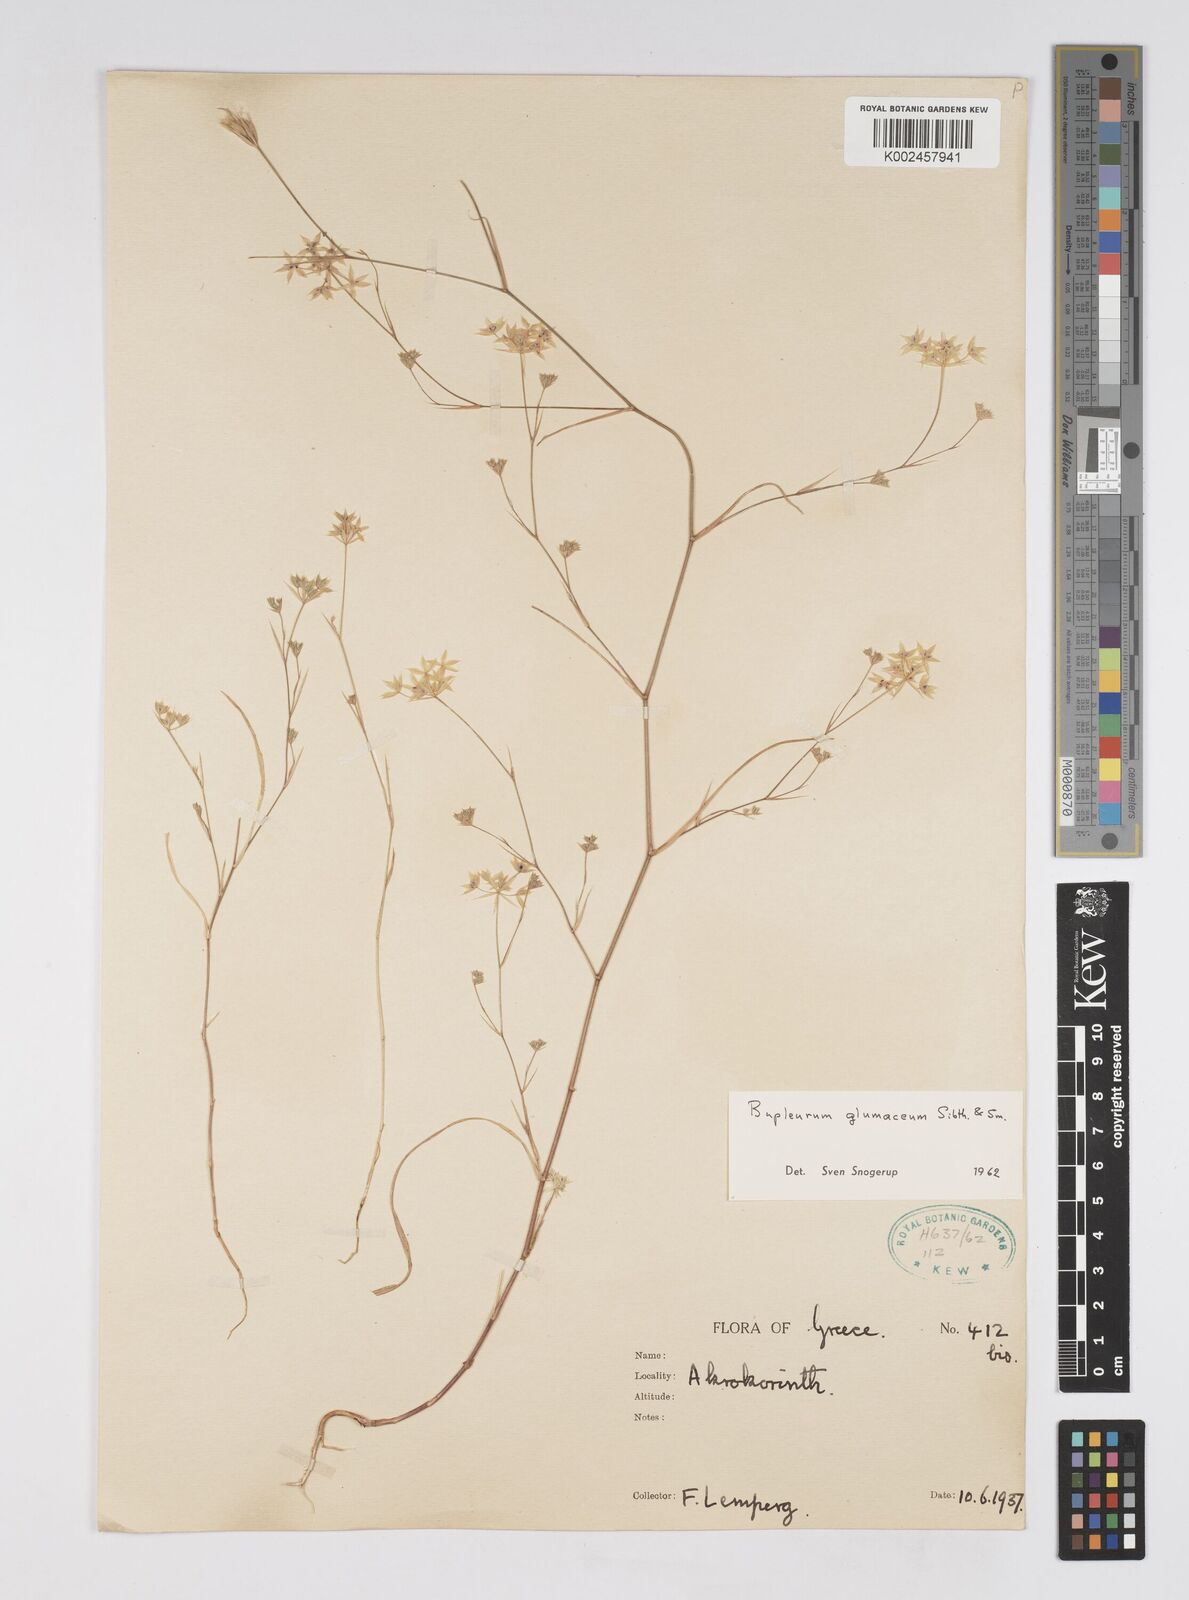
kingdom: Plantae
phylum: Tracheophyta
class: Magnoliopsida
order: Apiales
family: Apiaceae
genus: Bupleurum
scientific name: Bupleurum glumaceum
